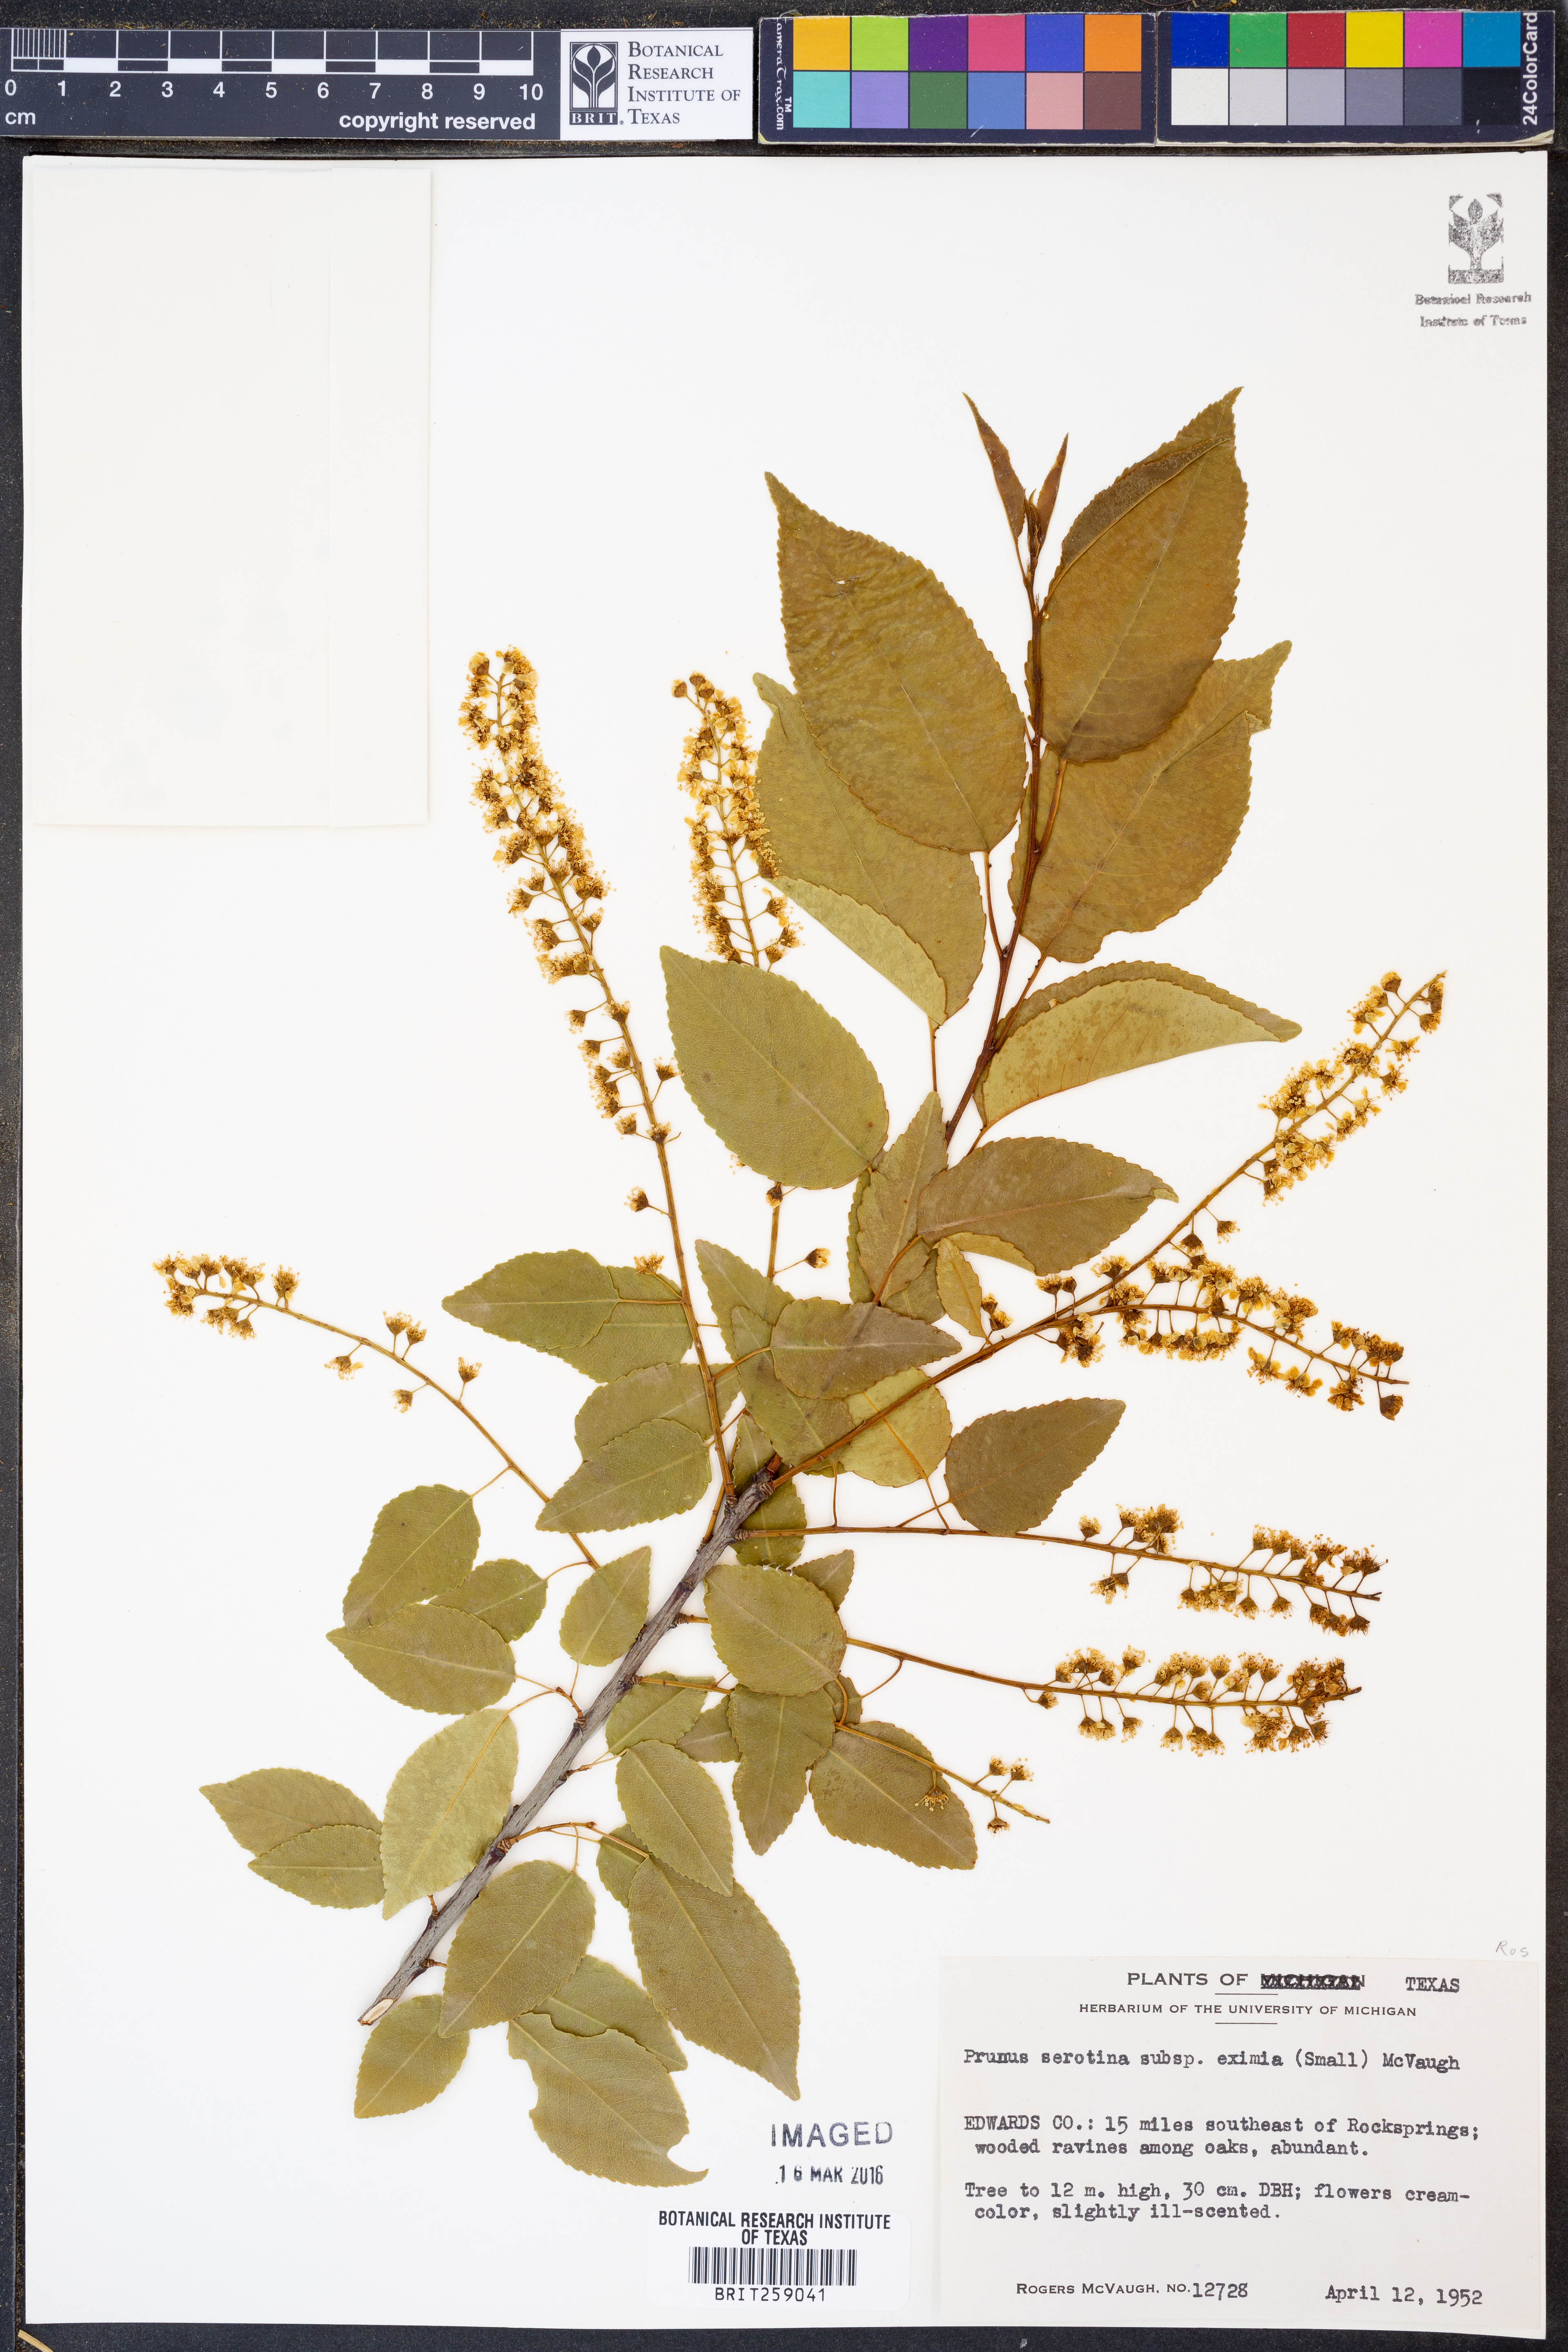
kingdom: Plantae
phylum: Tracheophyta
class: Magnoliopsida
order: Rosales
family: Rosaceae
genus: Prunus
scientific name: Prunus serotina
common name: Black cherry
